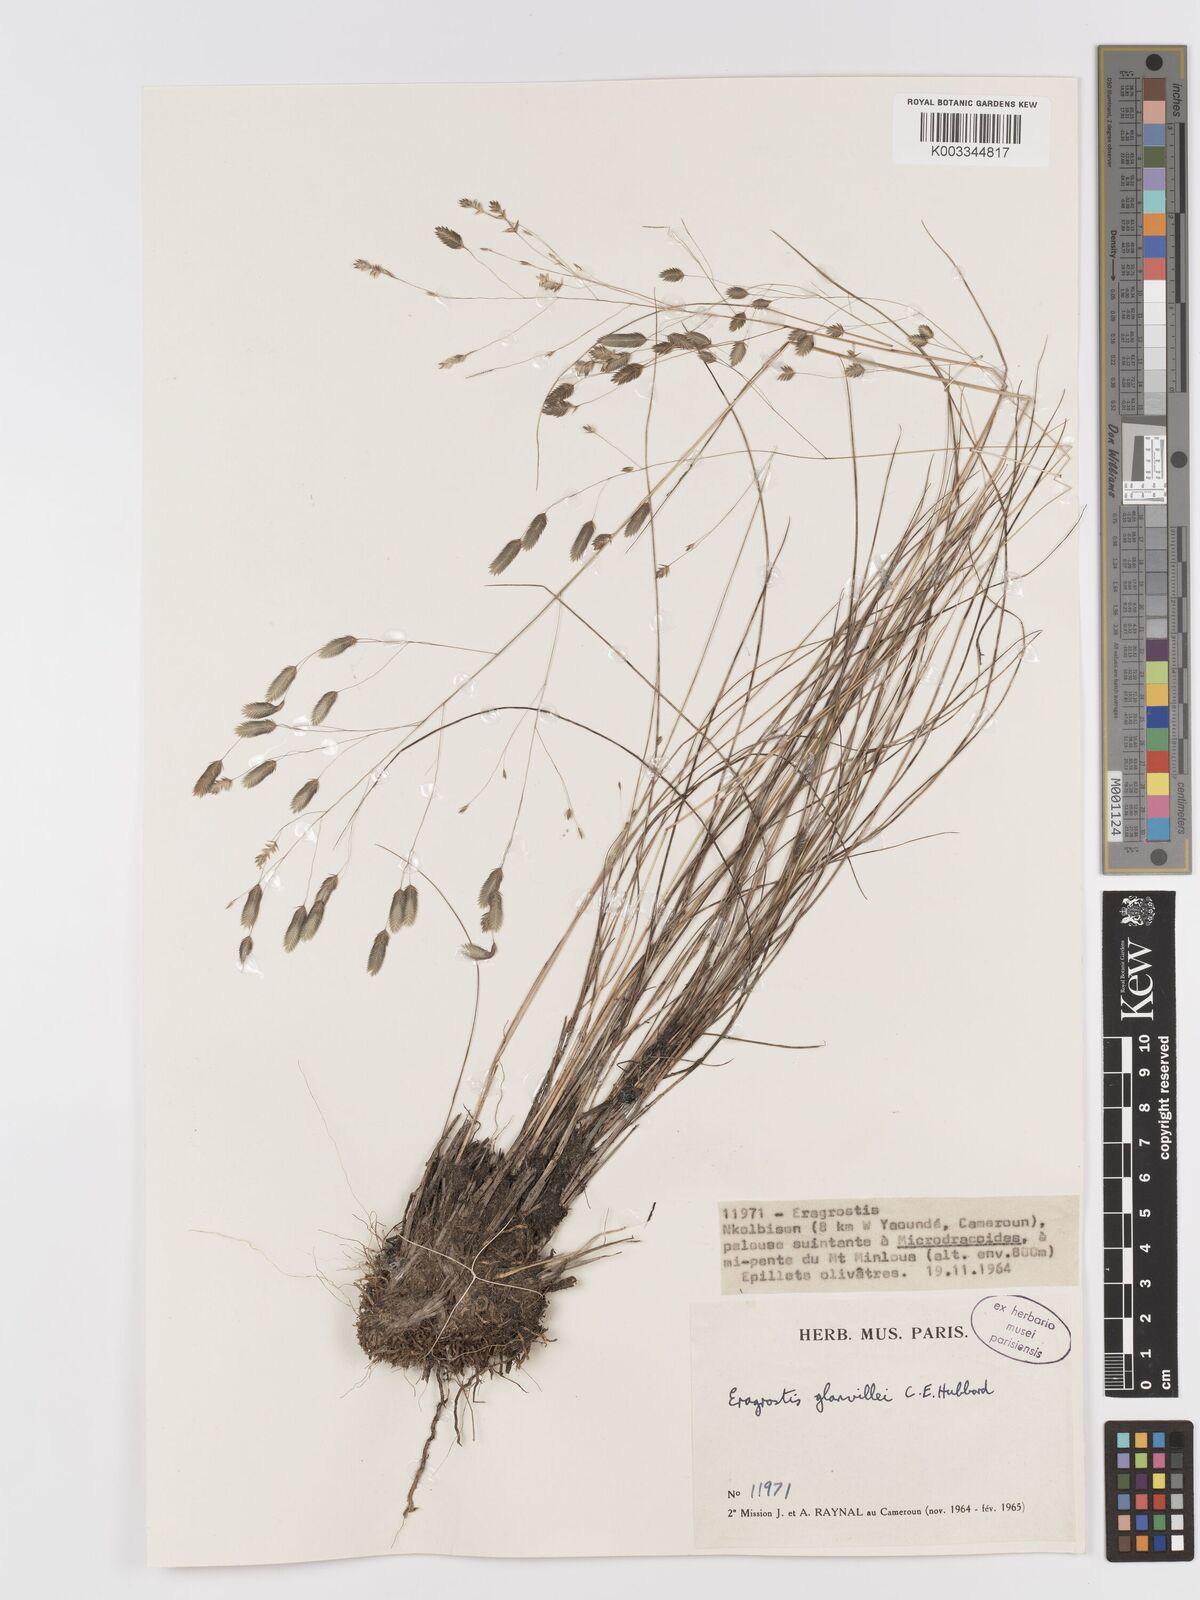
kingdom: Plantae
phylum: Tracheophyta
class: Liliopsida
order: Poales
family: Poaceae
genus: Eragrostis
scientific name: Eragrostis invalida
